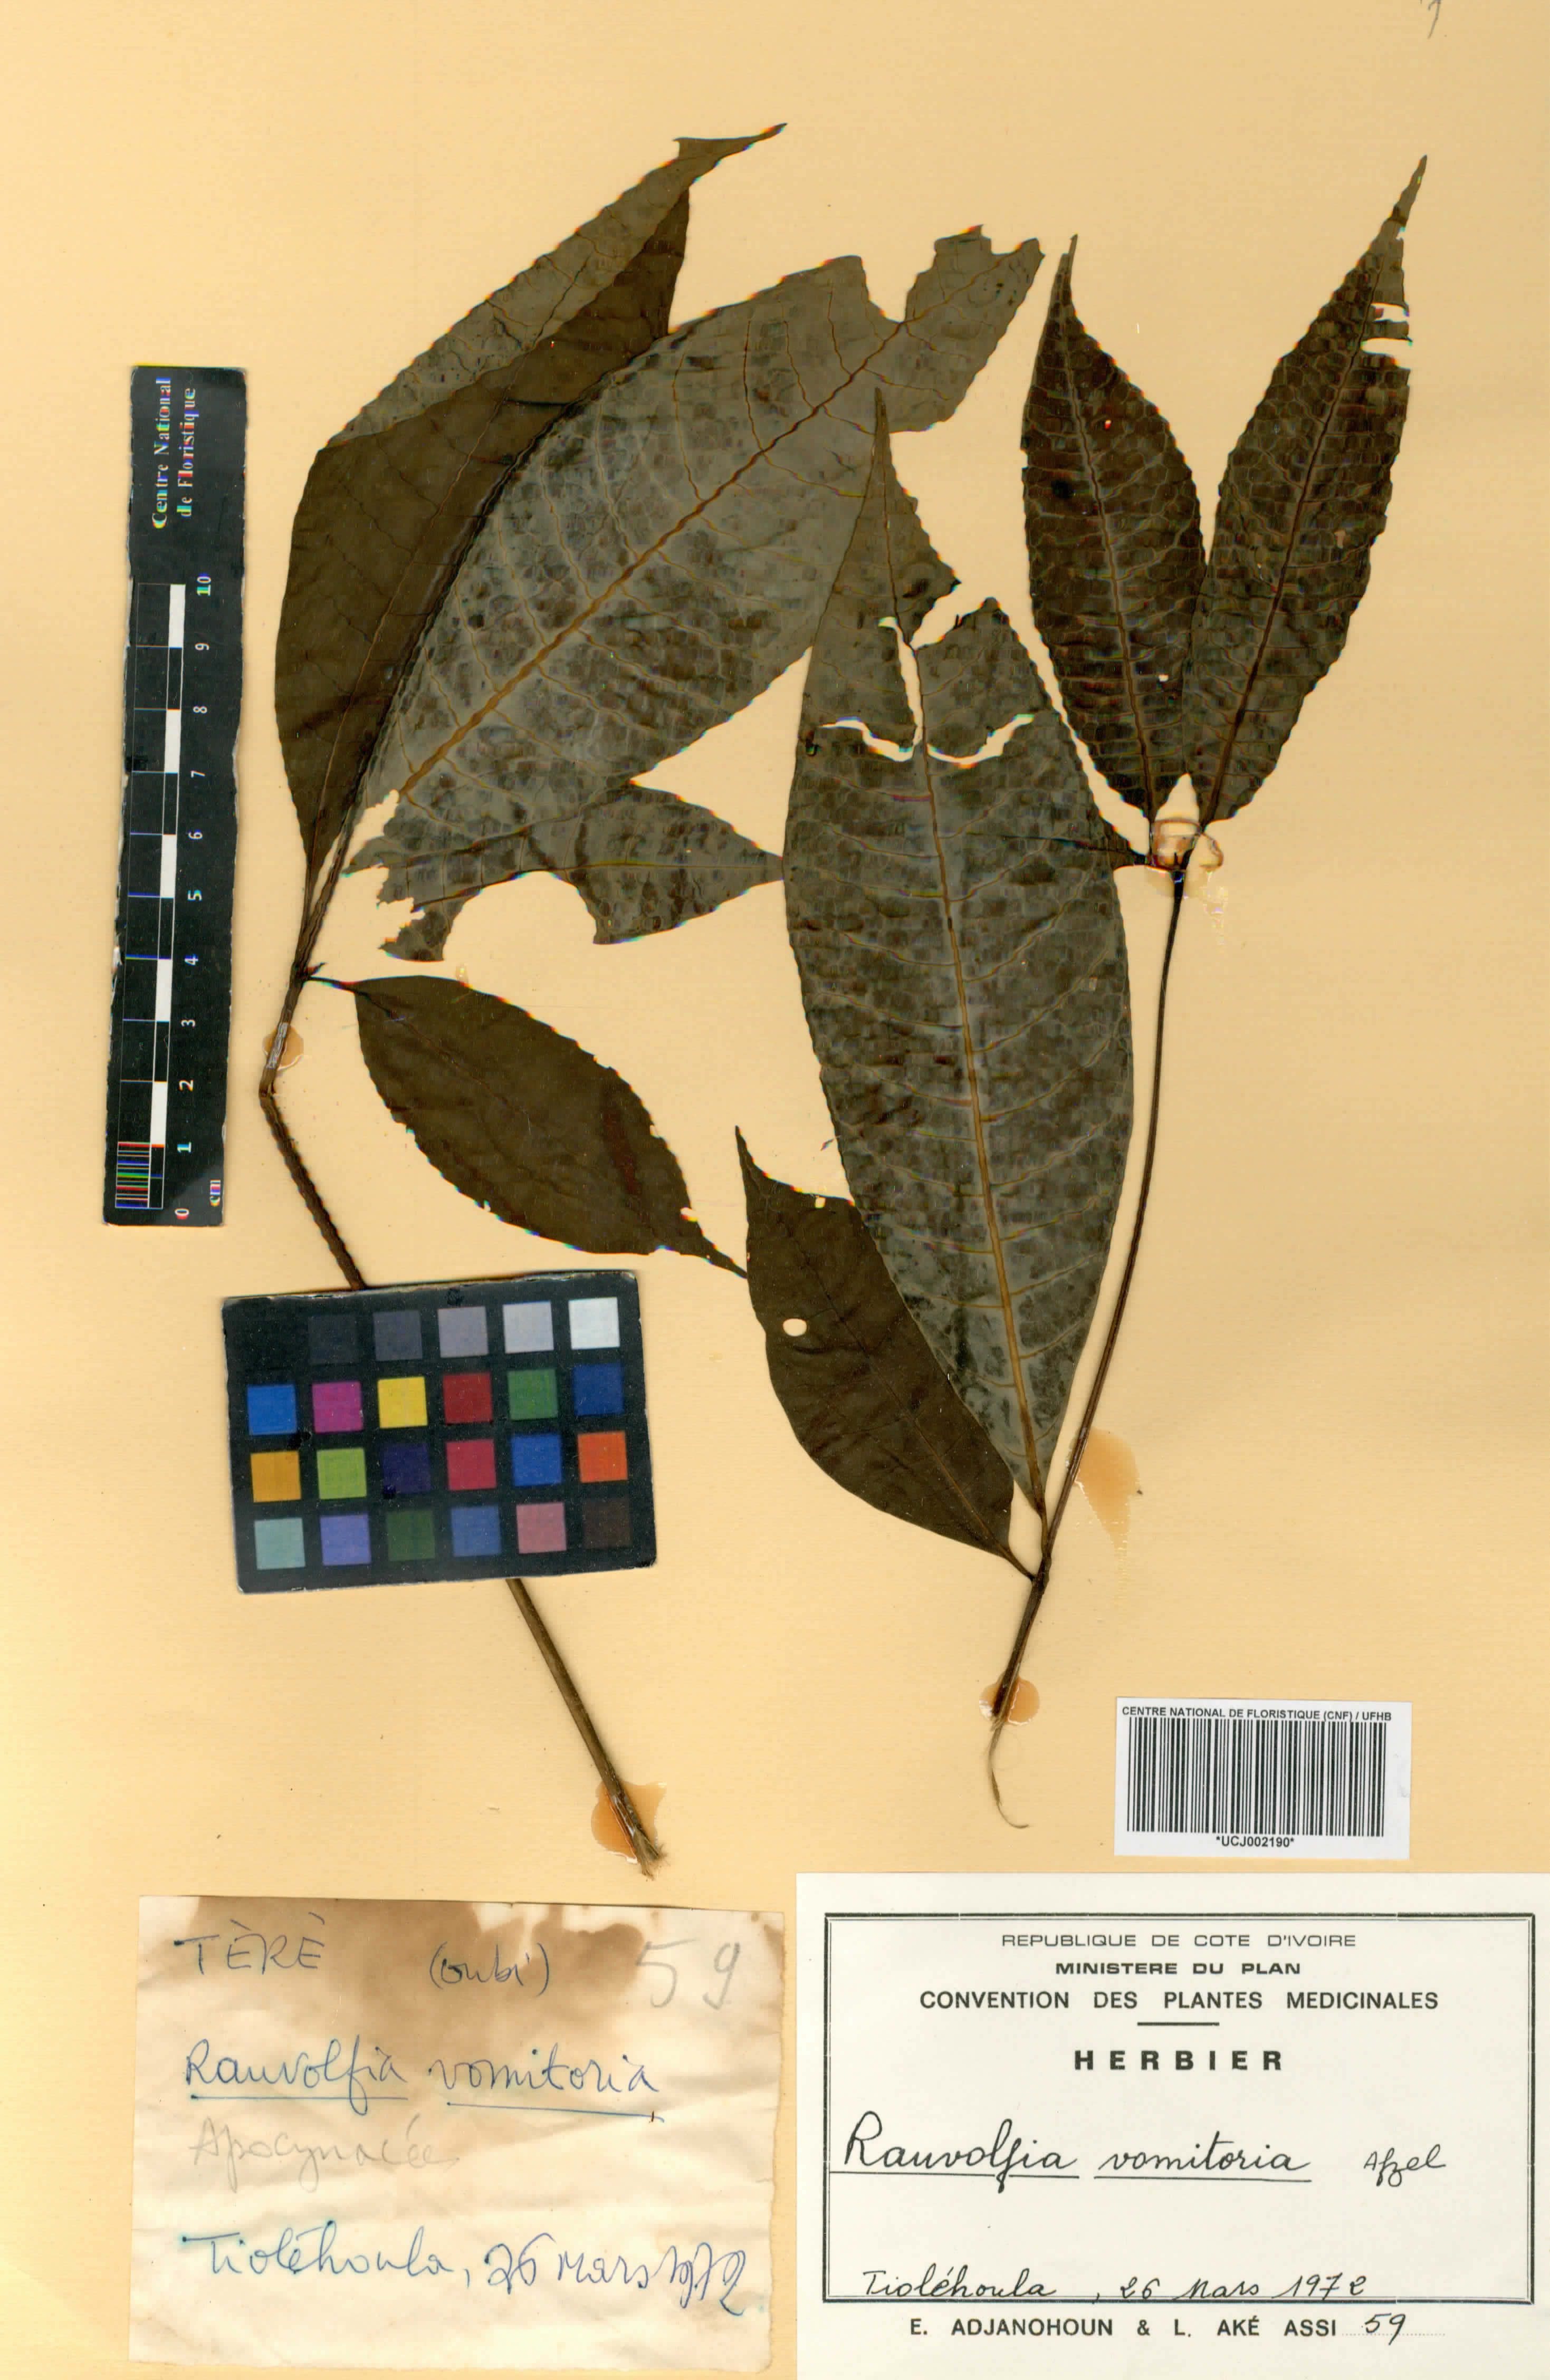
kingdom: Plantae
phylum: Tracheophyta
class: Magnoliopsida
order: Gentianales
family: Apocynaceae
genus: Rauvolfia
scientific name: Rauvolfia vomitoria
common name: Poison devil's-pepper
